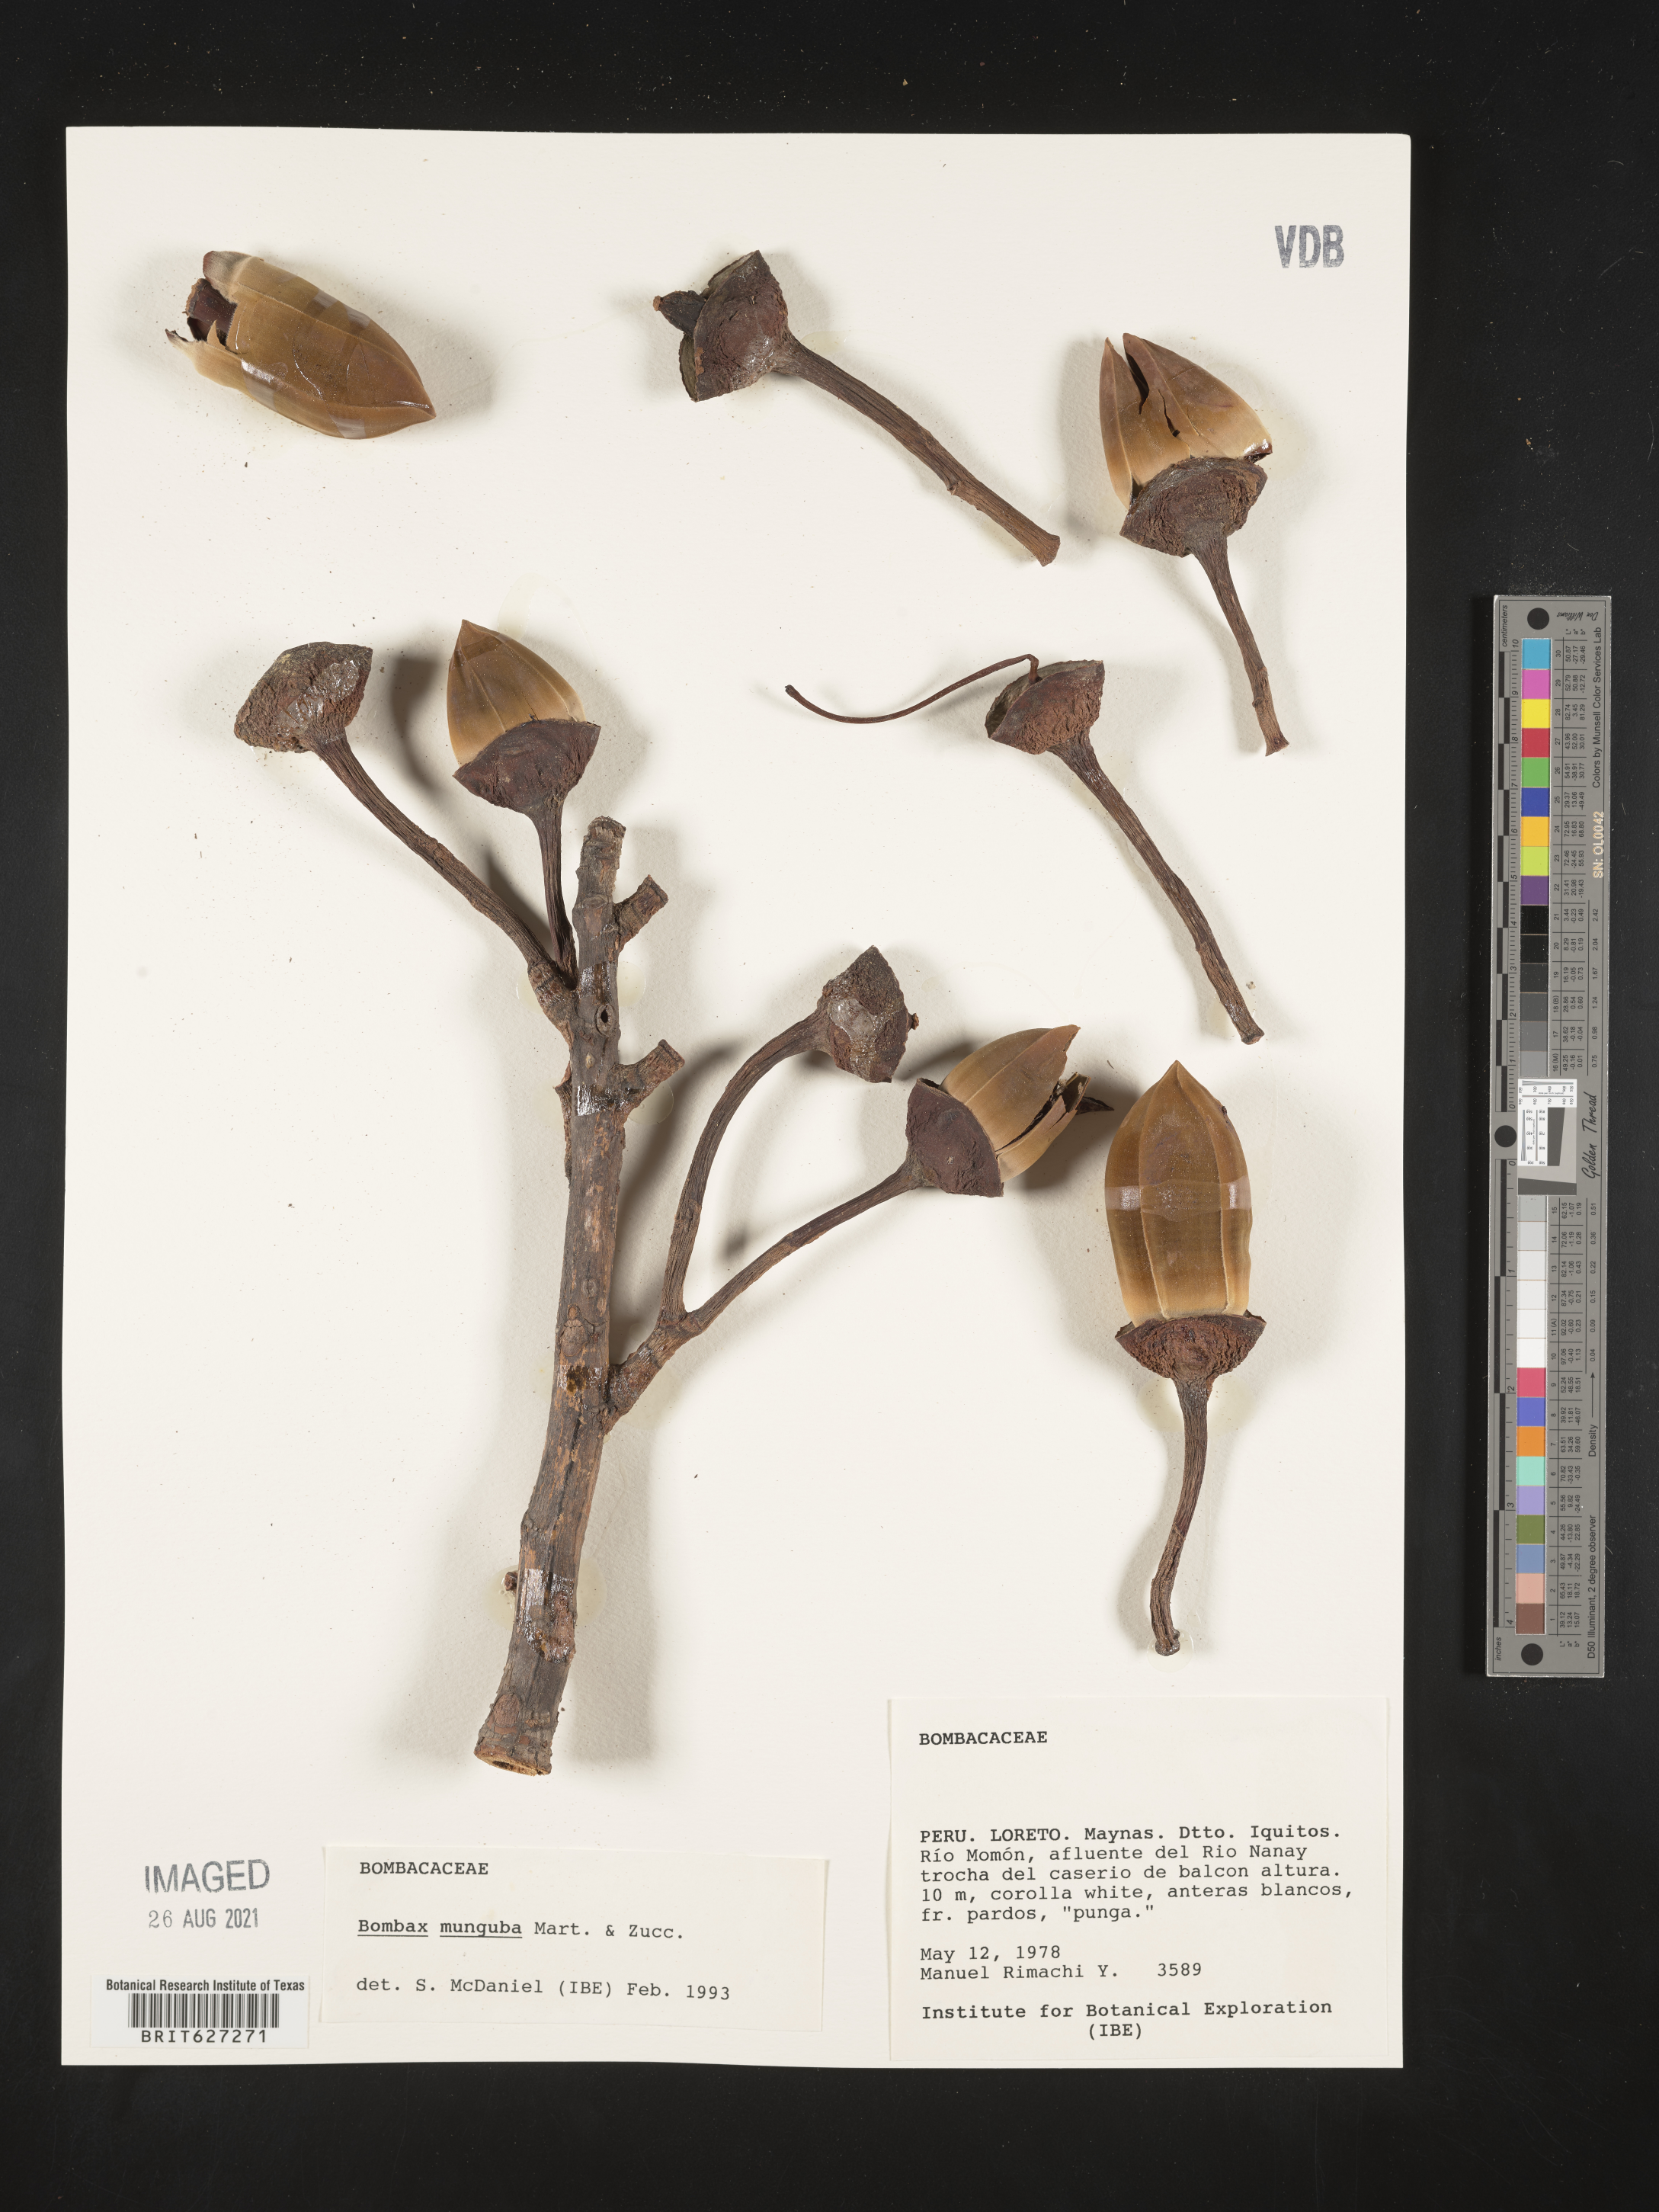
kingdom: Plantae
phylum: Tracheophyta
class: Magnoliopsida
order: Malvales
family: Malvaceae
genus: Bombax
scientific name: Bombax
